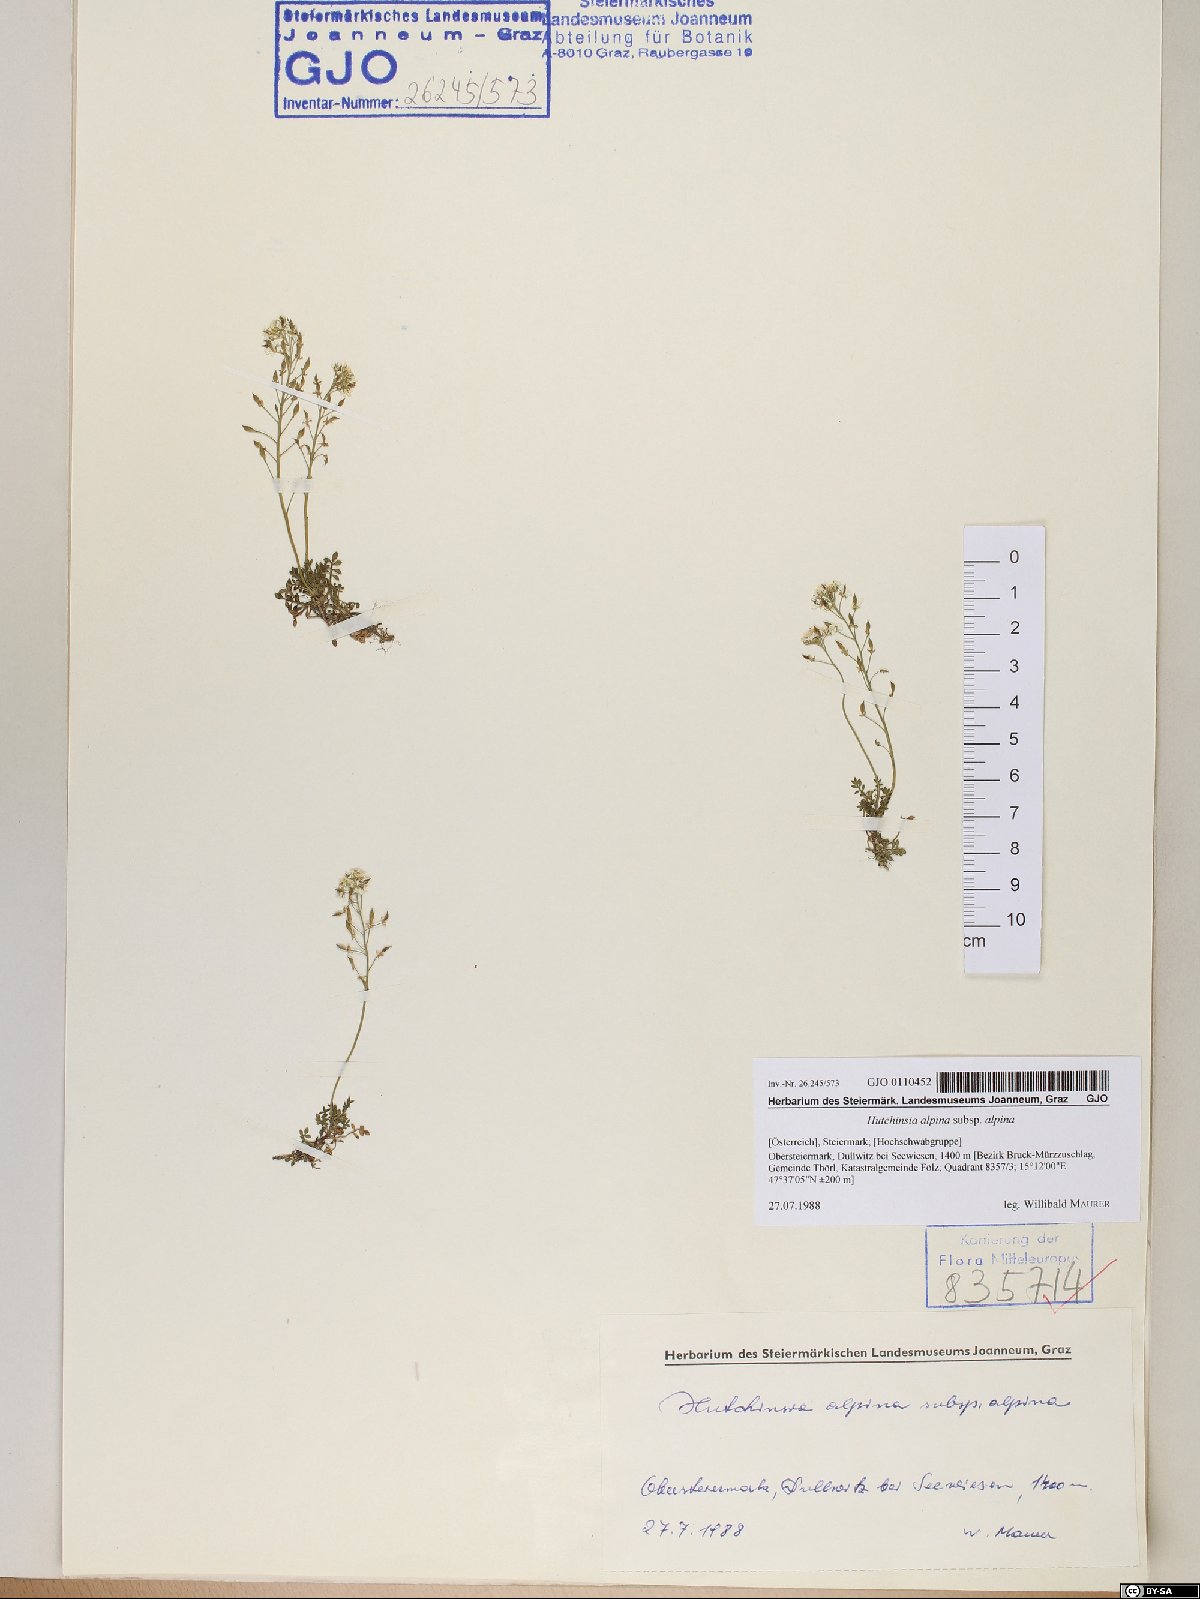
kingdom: Plantae
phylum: Tracheophyta
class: Magnoliopsida
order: Brassicales
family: Brassicaceae
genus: Hornungia
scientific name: Hornungia alpina
